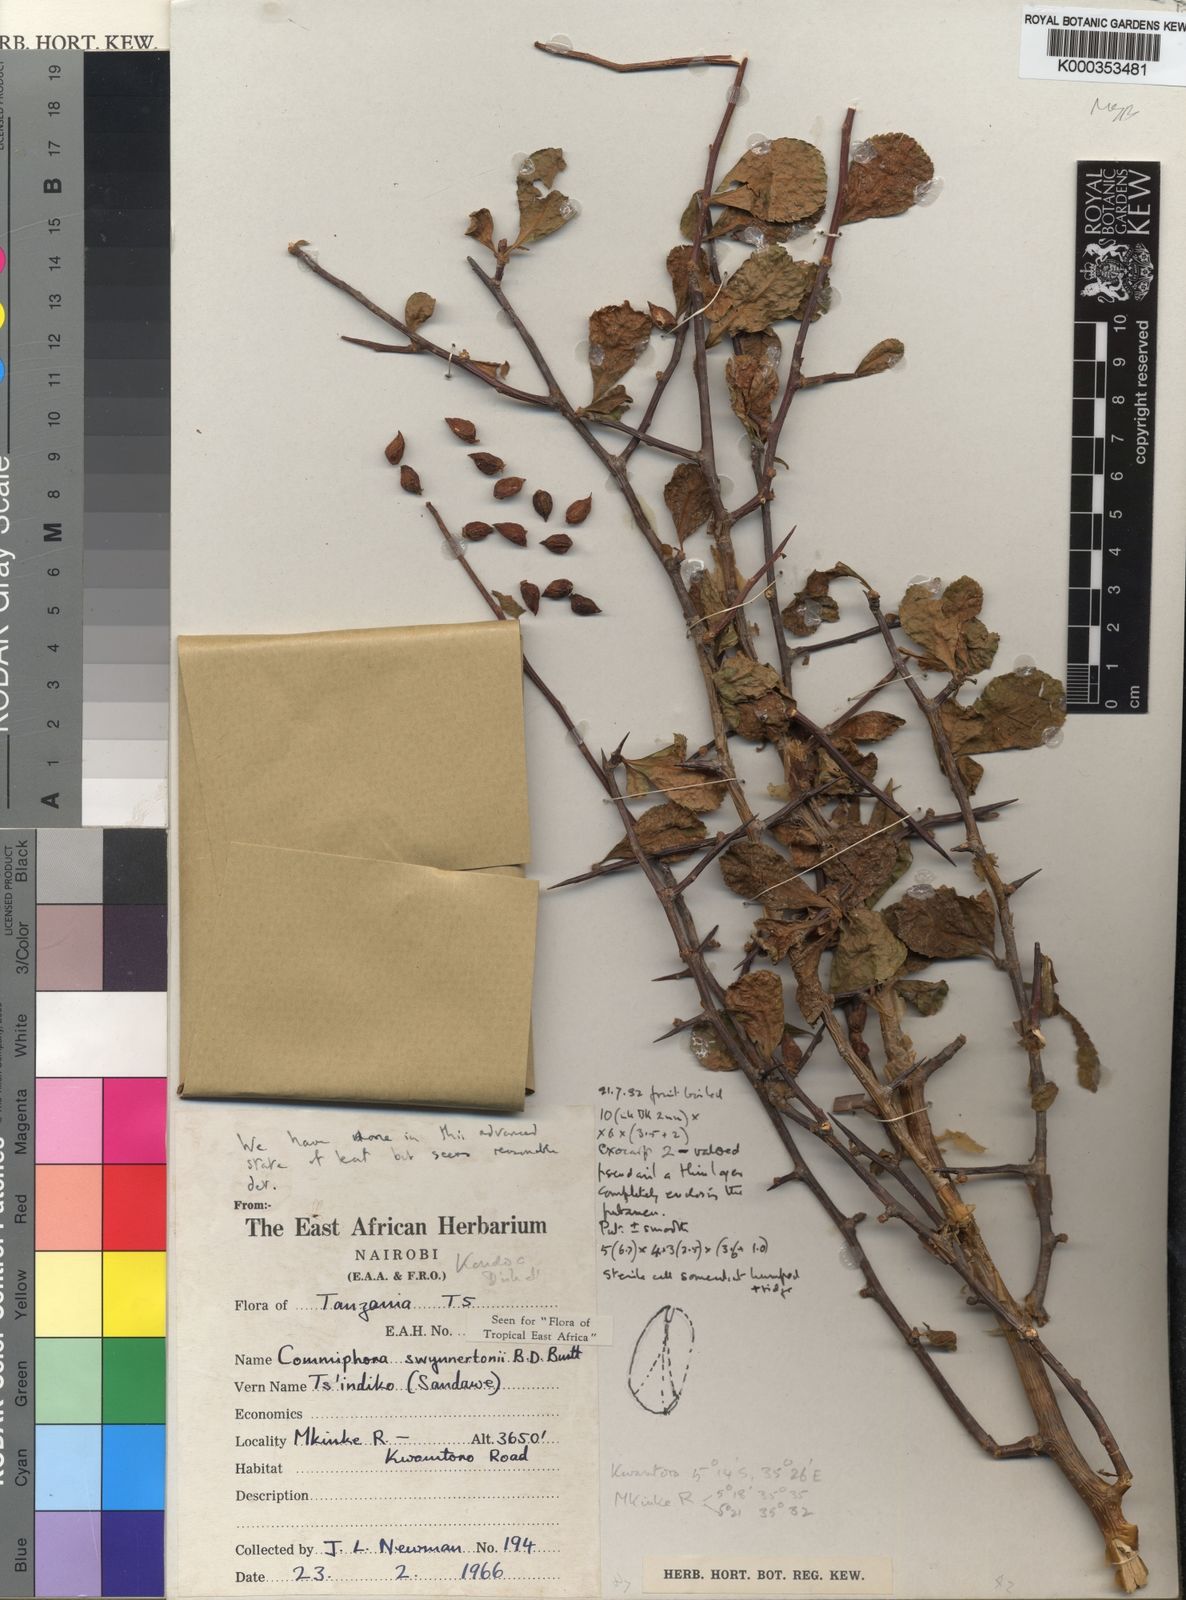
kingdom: Plantae
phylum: Tracheophyta
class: Magnoliopsida
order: Sapindales
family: Burseraceae
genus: Commiphora
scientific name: Commiphora swynnertonii
